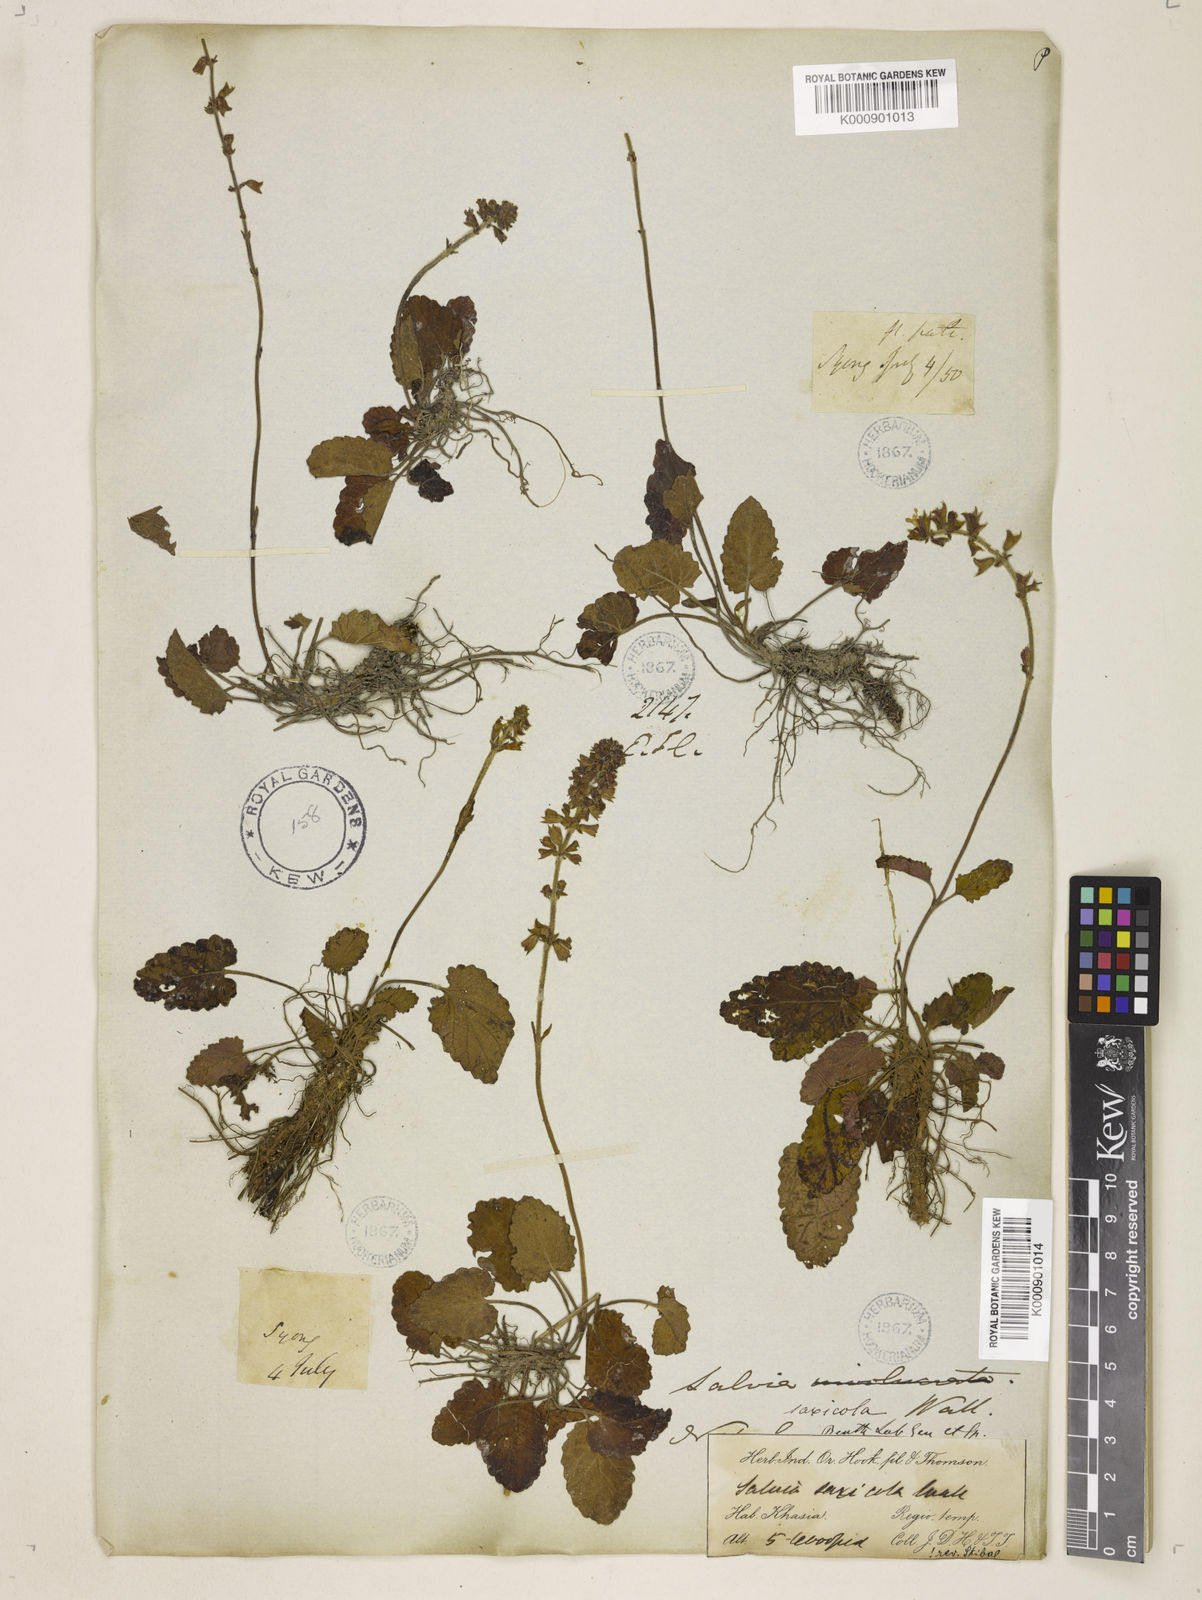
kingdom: Plantae
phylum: Tracheophyta
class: Magnoliopsida
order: Lamiales
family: Lamiaceae
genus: Salvia
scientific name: Salvia
